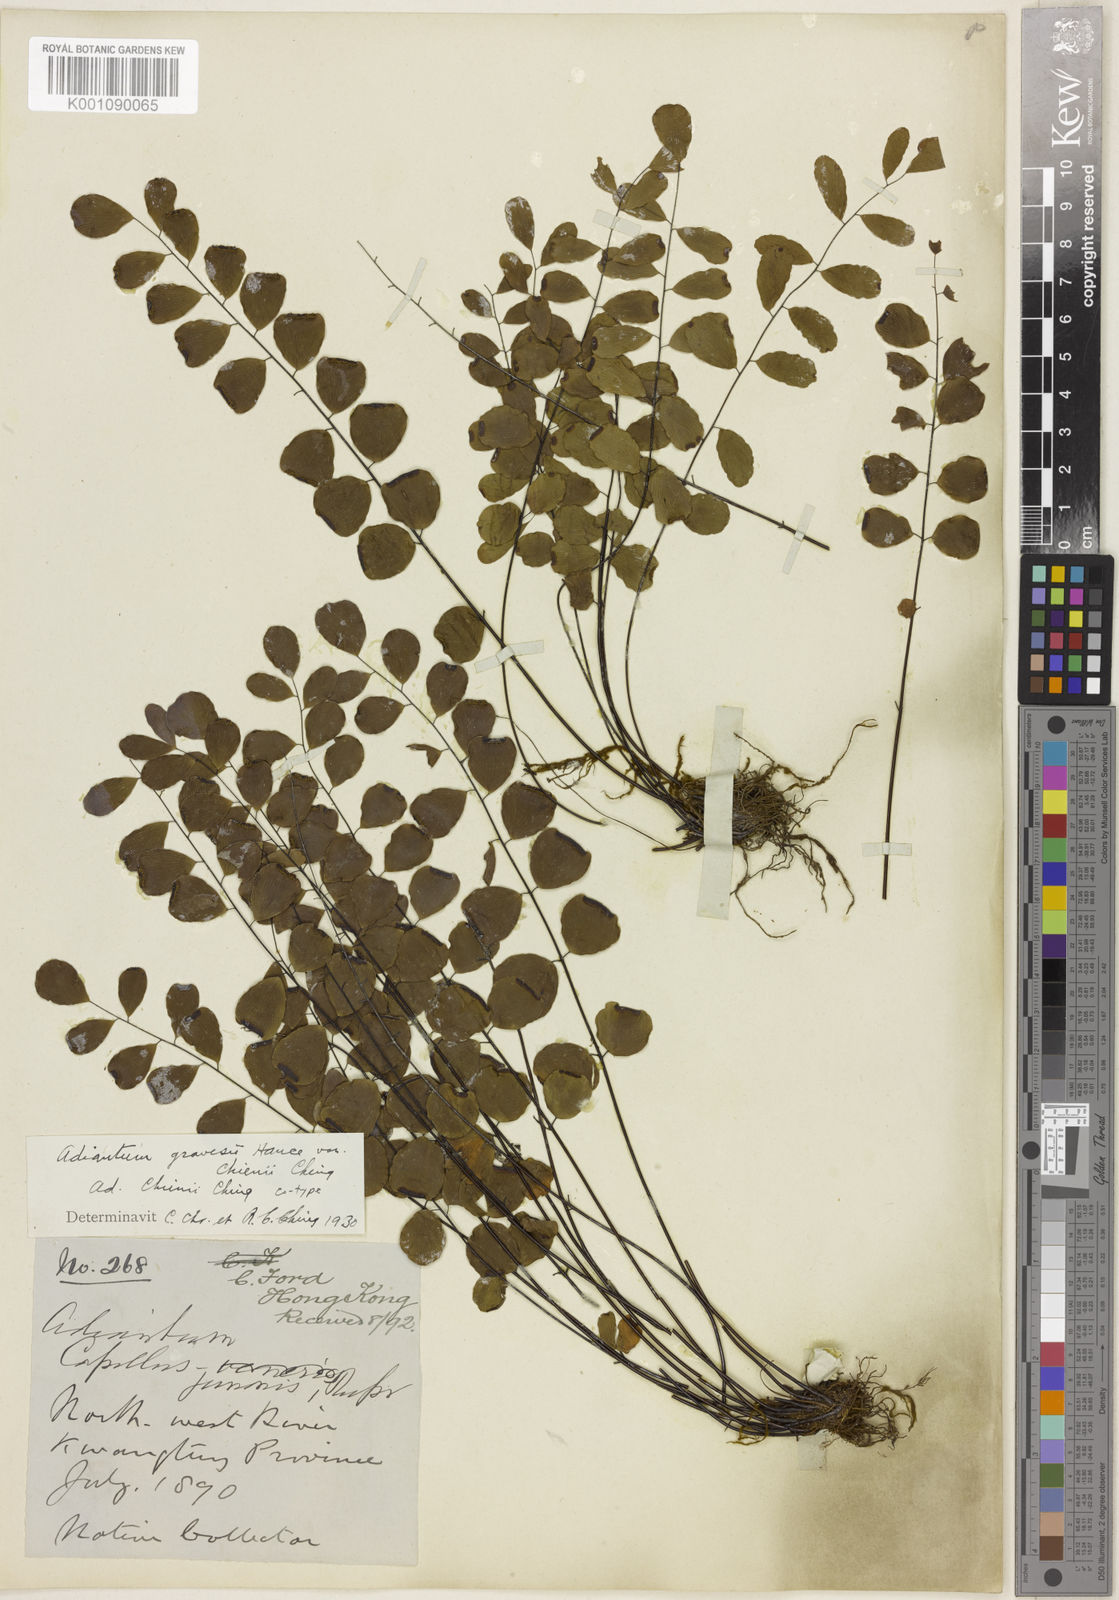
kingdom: Plantae
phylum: Tracheophyta
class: Polypodiopsida
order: Polypodiales
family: Pteridaceae
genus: Adiantum
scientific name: Adiantum gravesii
